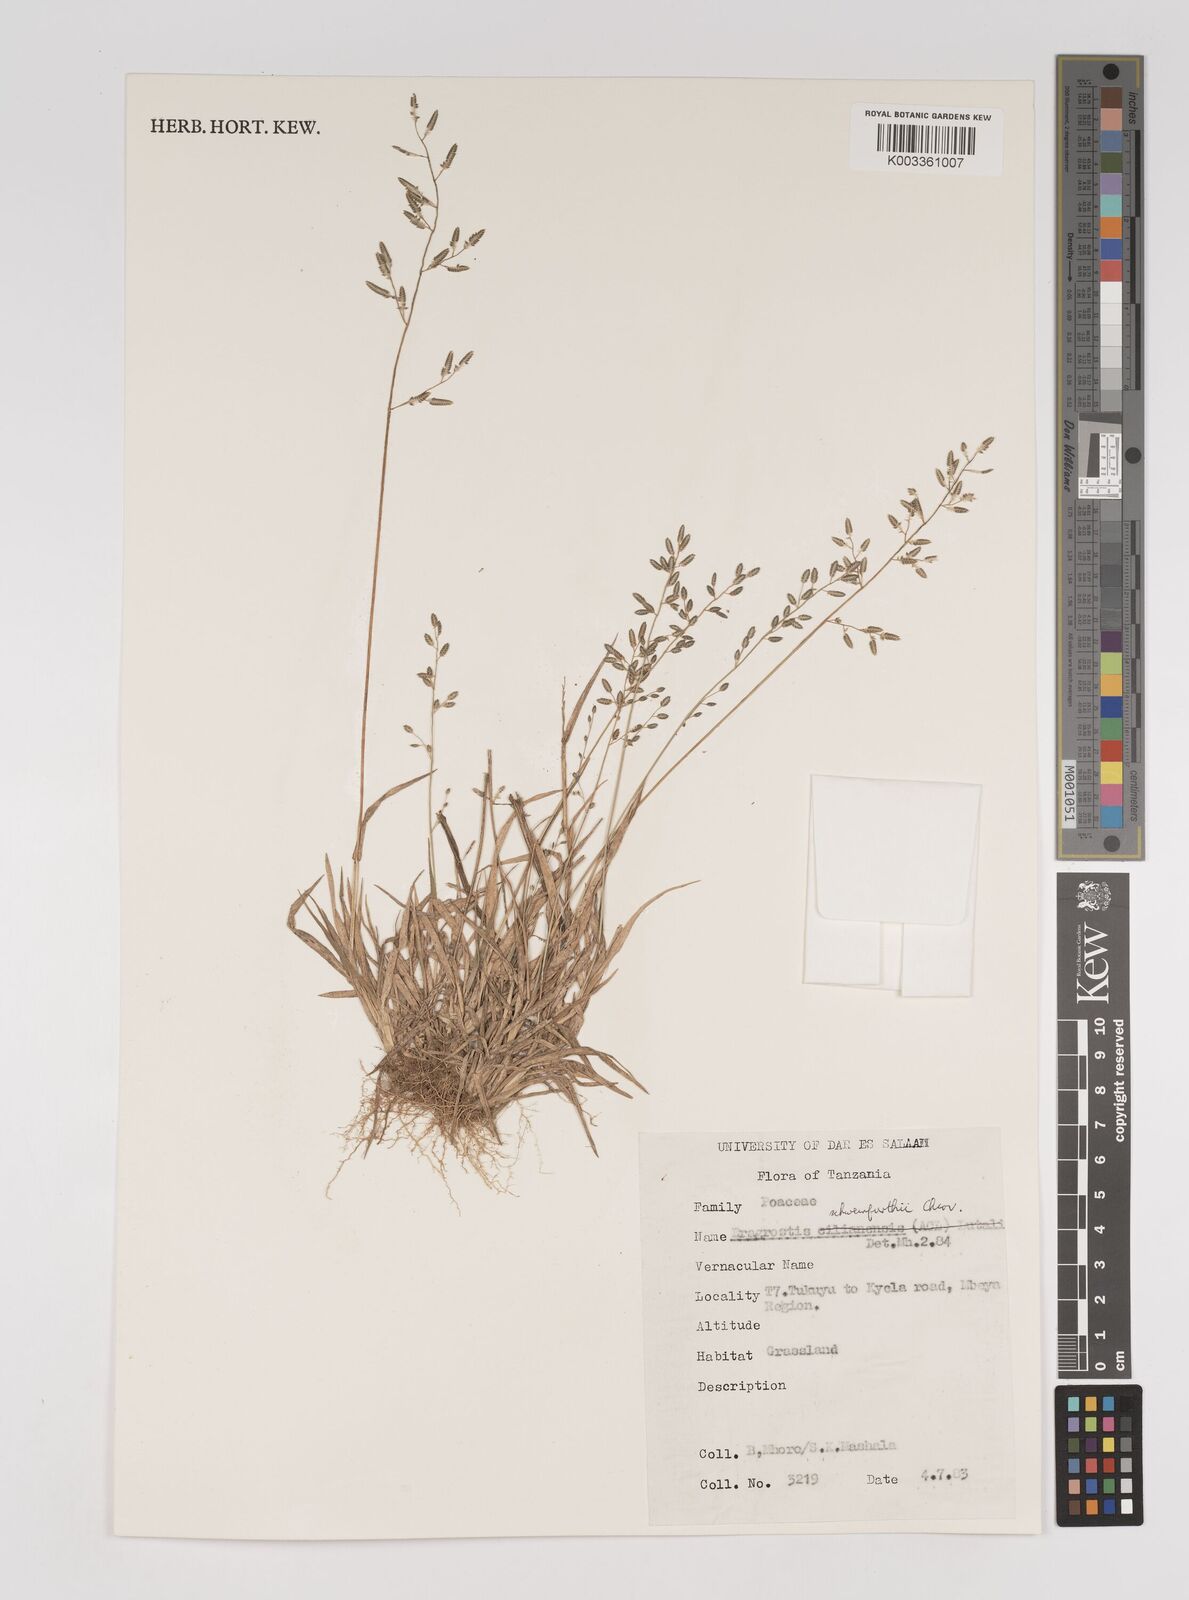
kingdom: Plantae
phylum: Tracheophyta
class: Liliopsida
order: Poales
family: Poaceae
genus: Eragrostis
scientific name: Eragrostis schweinfurthii
